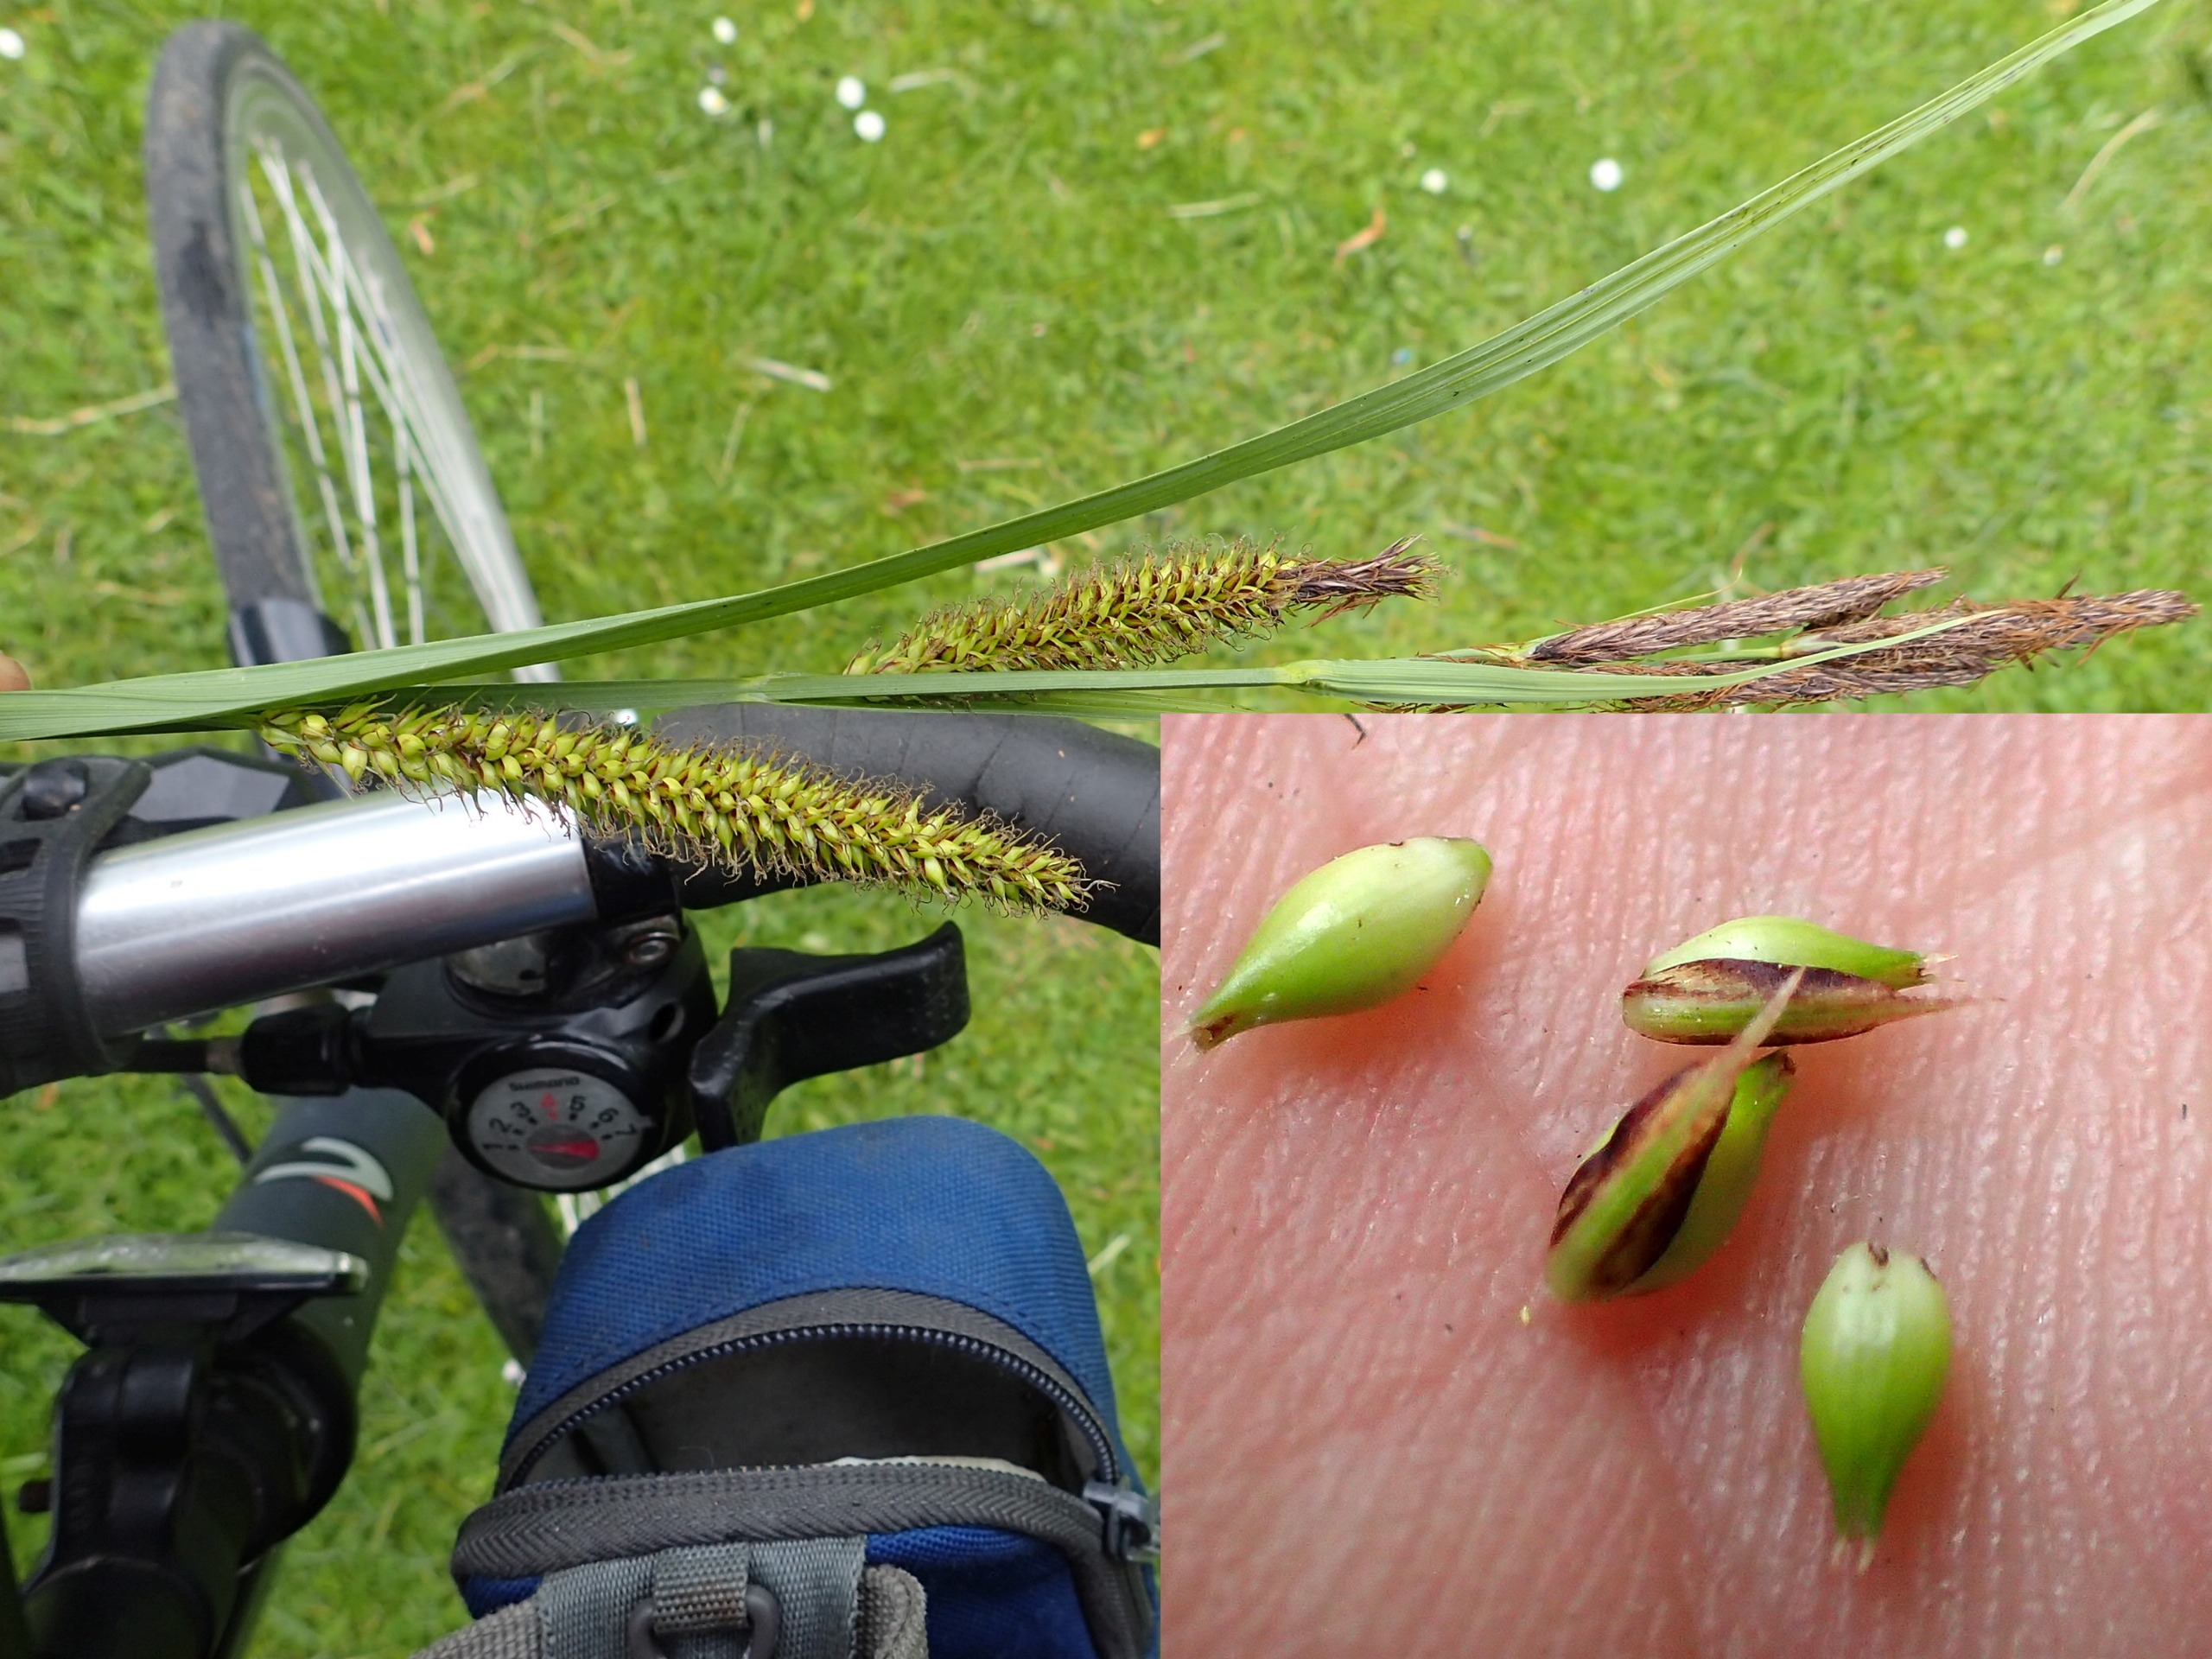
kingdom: Plantae
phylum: Tracheophyta
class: Liliopsida
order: Poales
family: Cyperaceae
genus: Carex
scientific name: Carex riparia
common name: Tykakset star
